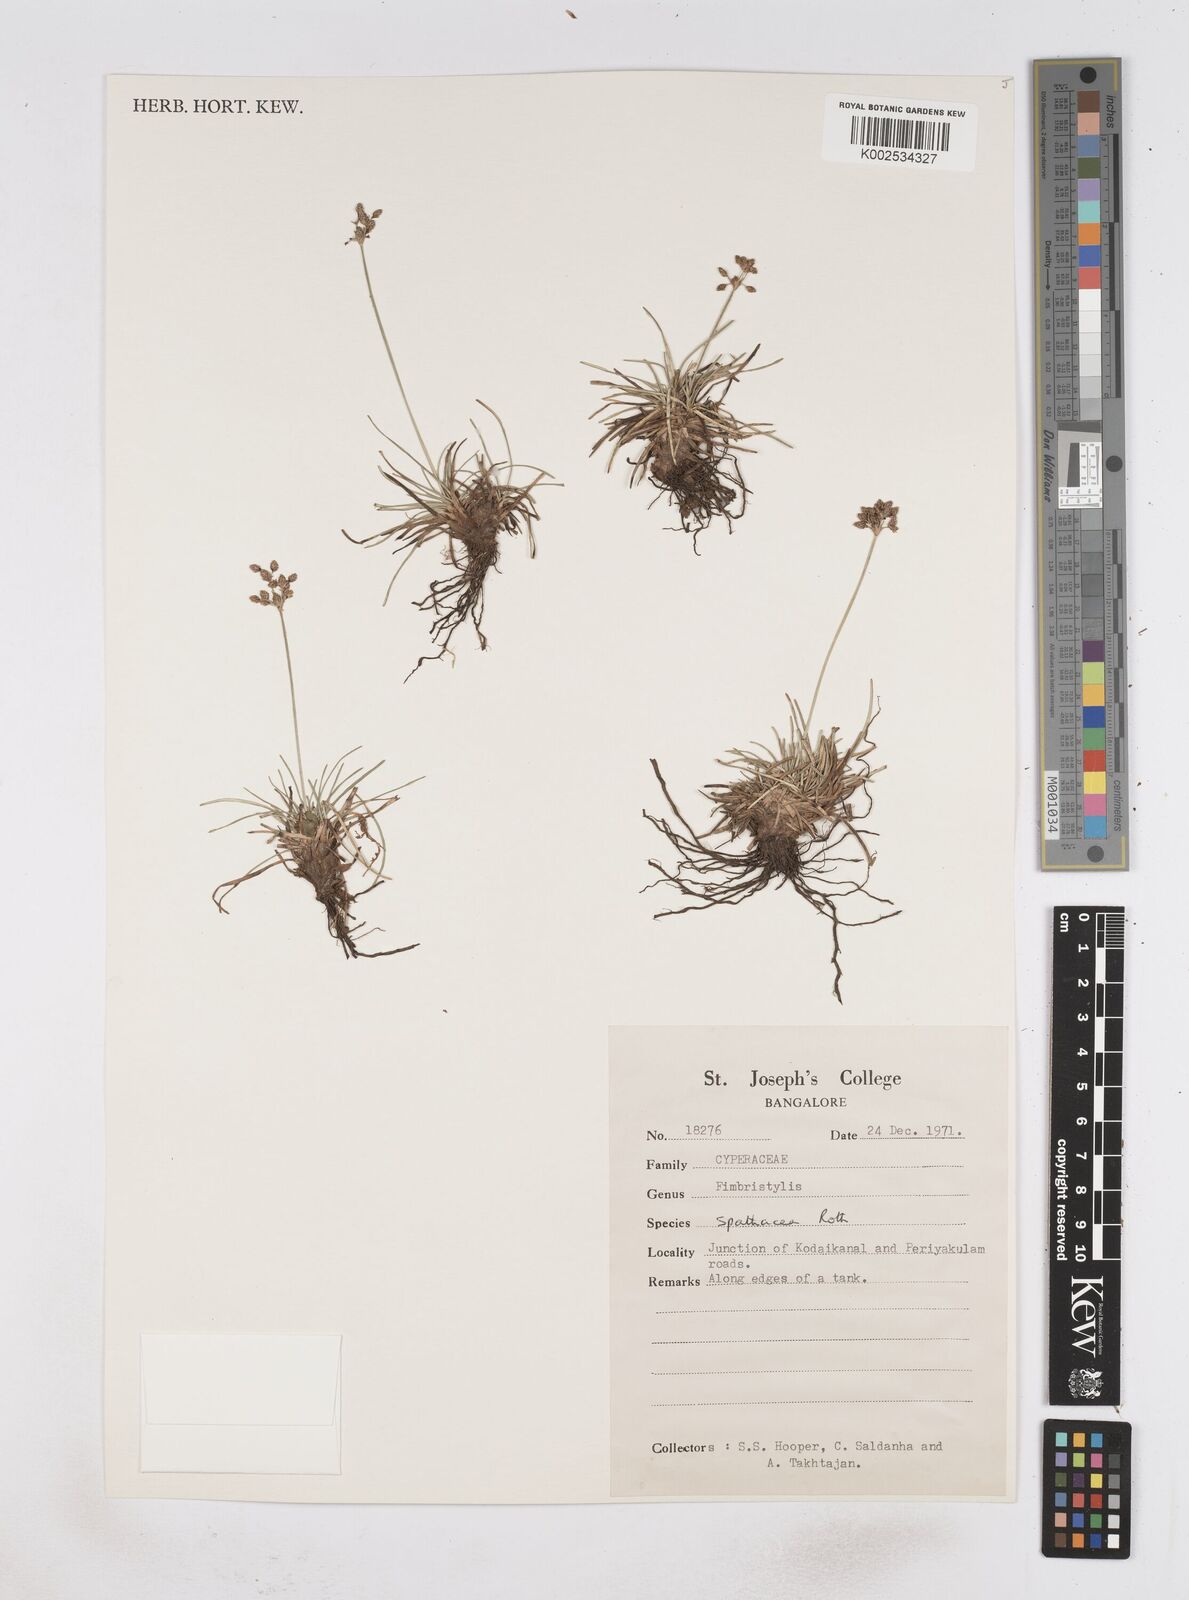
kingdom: Plantae
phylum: Tracheophyta
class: Liliopsida
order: Poales
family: Cyperaceae
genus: Fimbristylis
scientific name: Fimbristylis cymosa
